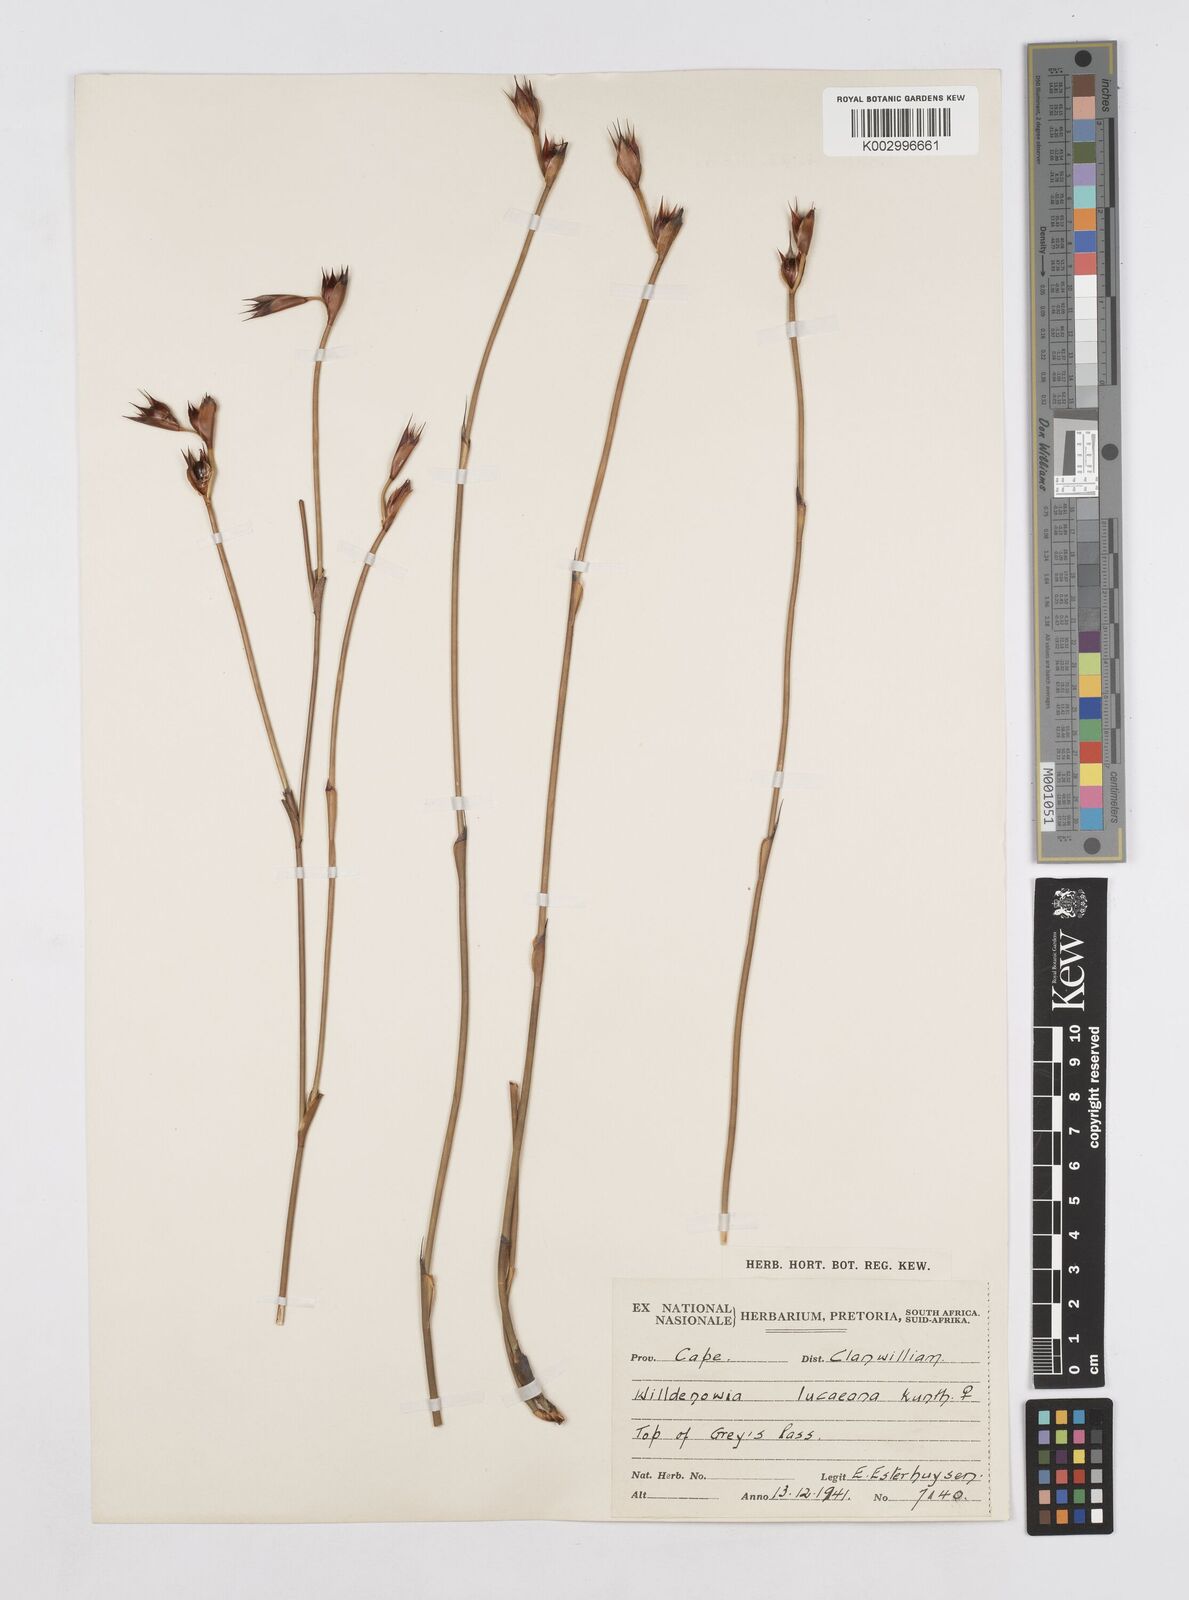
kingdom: Plantae
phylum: Tracheophyta
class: Liliopsida
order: Poales
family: Restionaceae
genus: Willdenowia
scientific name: Willdenowia glomerata
